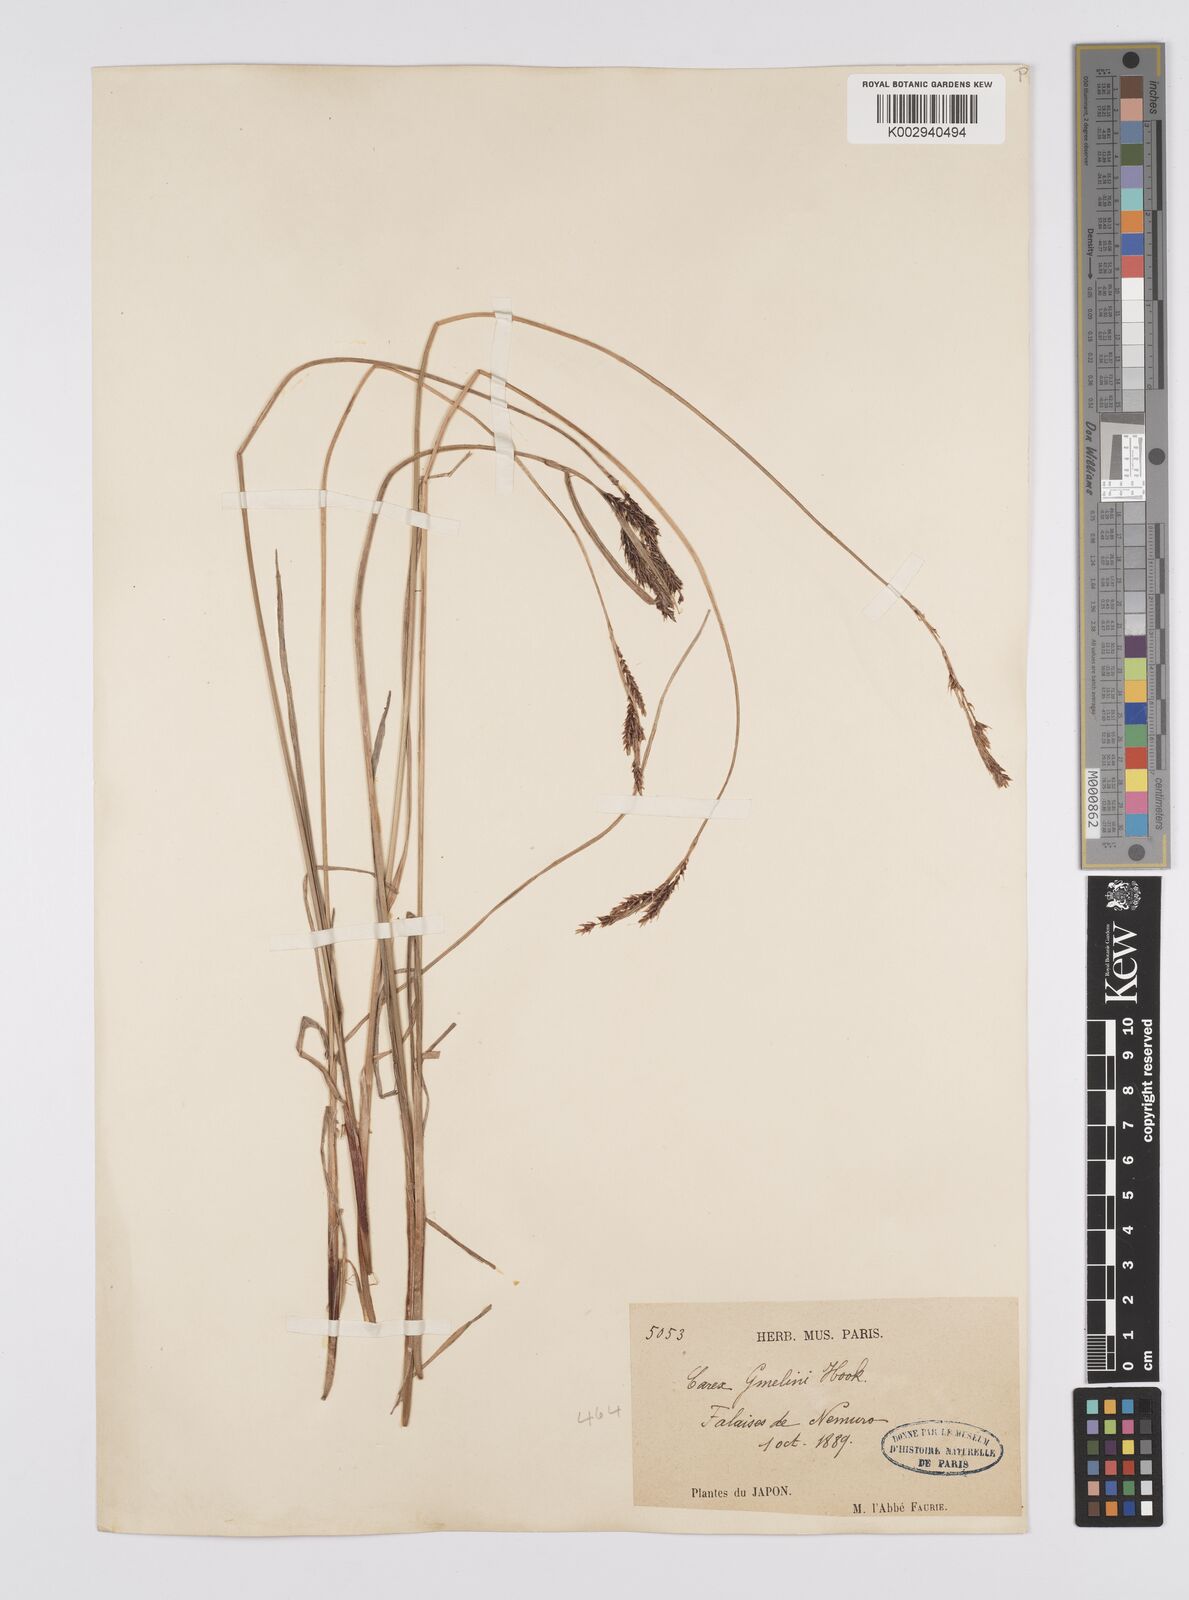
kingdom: Plantae
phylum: Tracheophyta
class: Liliopsida
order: Poales
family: Cyperaceae
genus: Carex
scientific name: Carex gmelinii
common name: Gmelin's sedge
